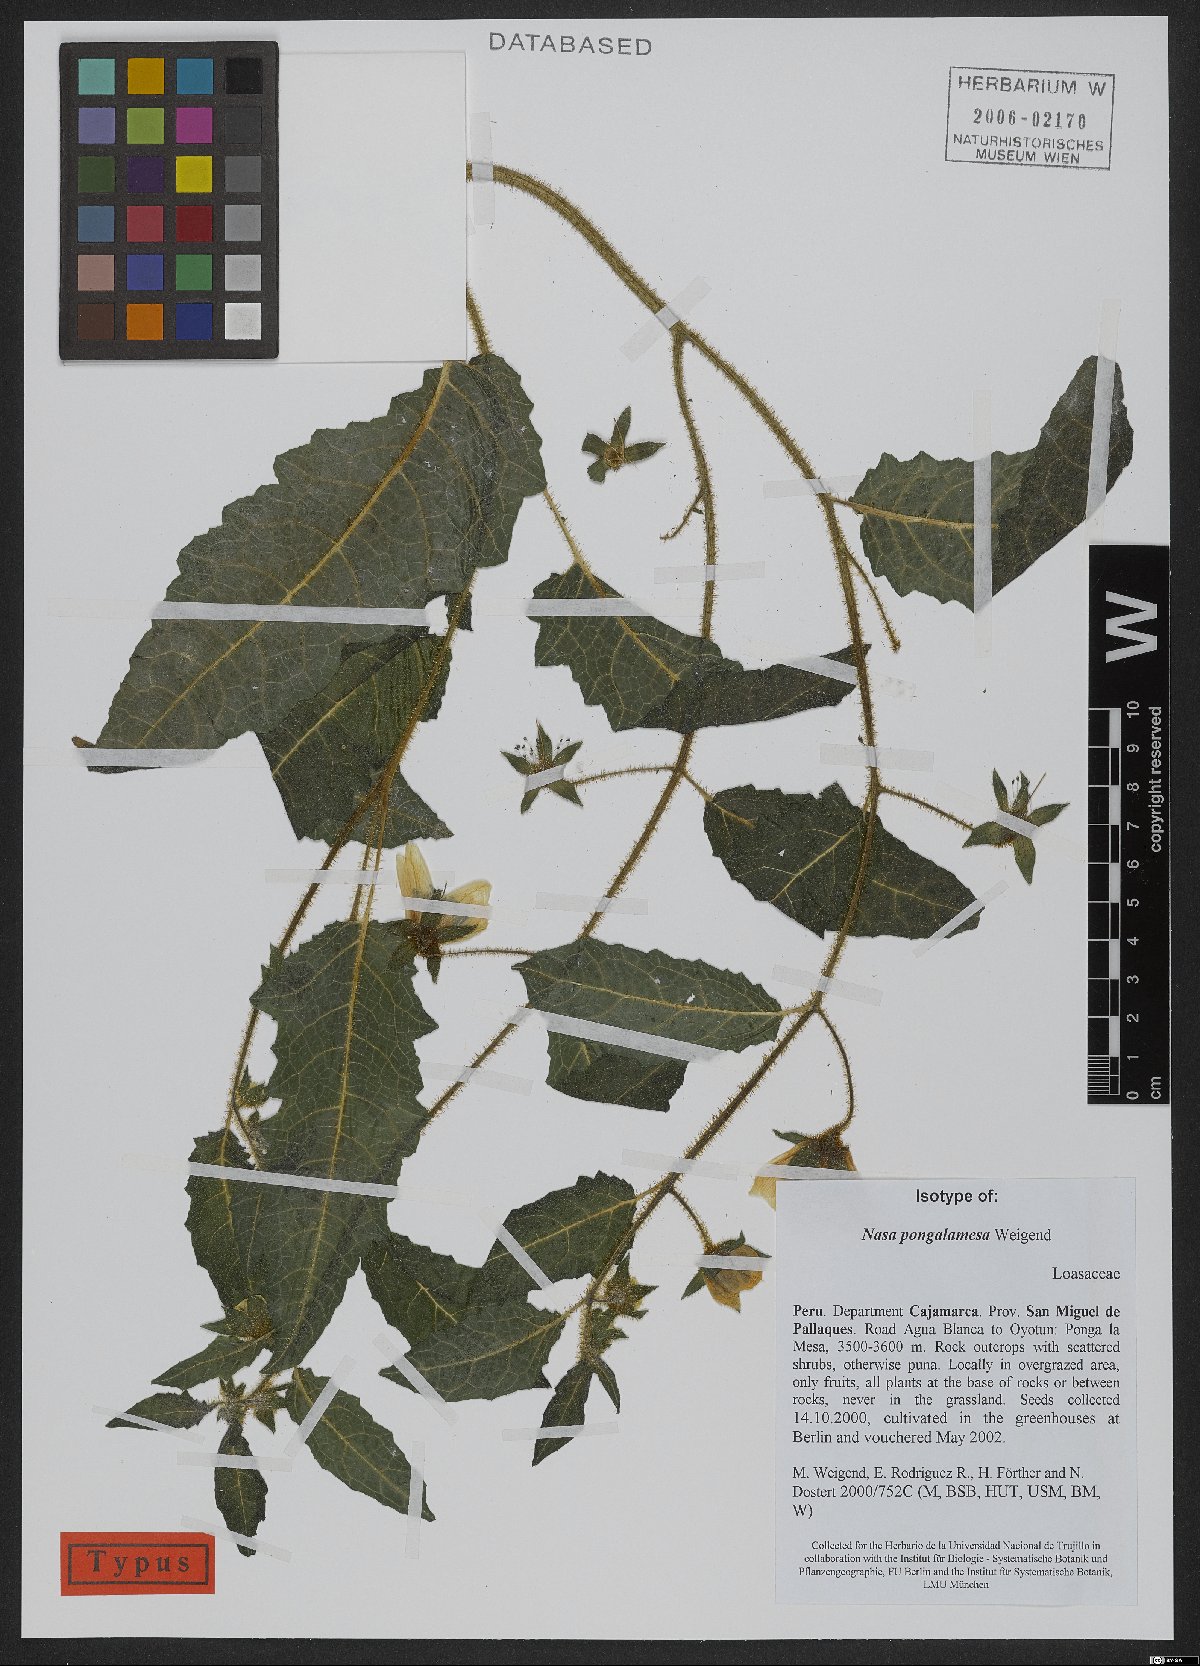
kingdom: Plantae
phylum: Tracheophyta
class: Magnoliopsida
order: Cornales
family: Loasaceae
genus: Nasa
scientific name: Nasa pongalamesa
